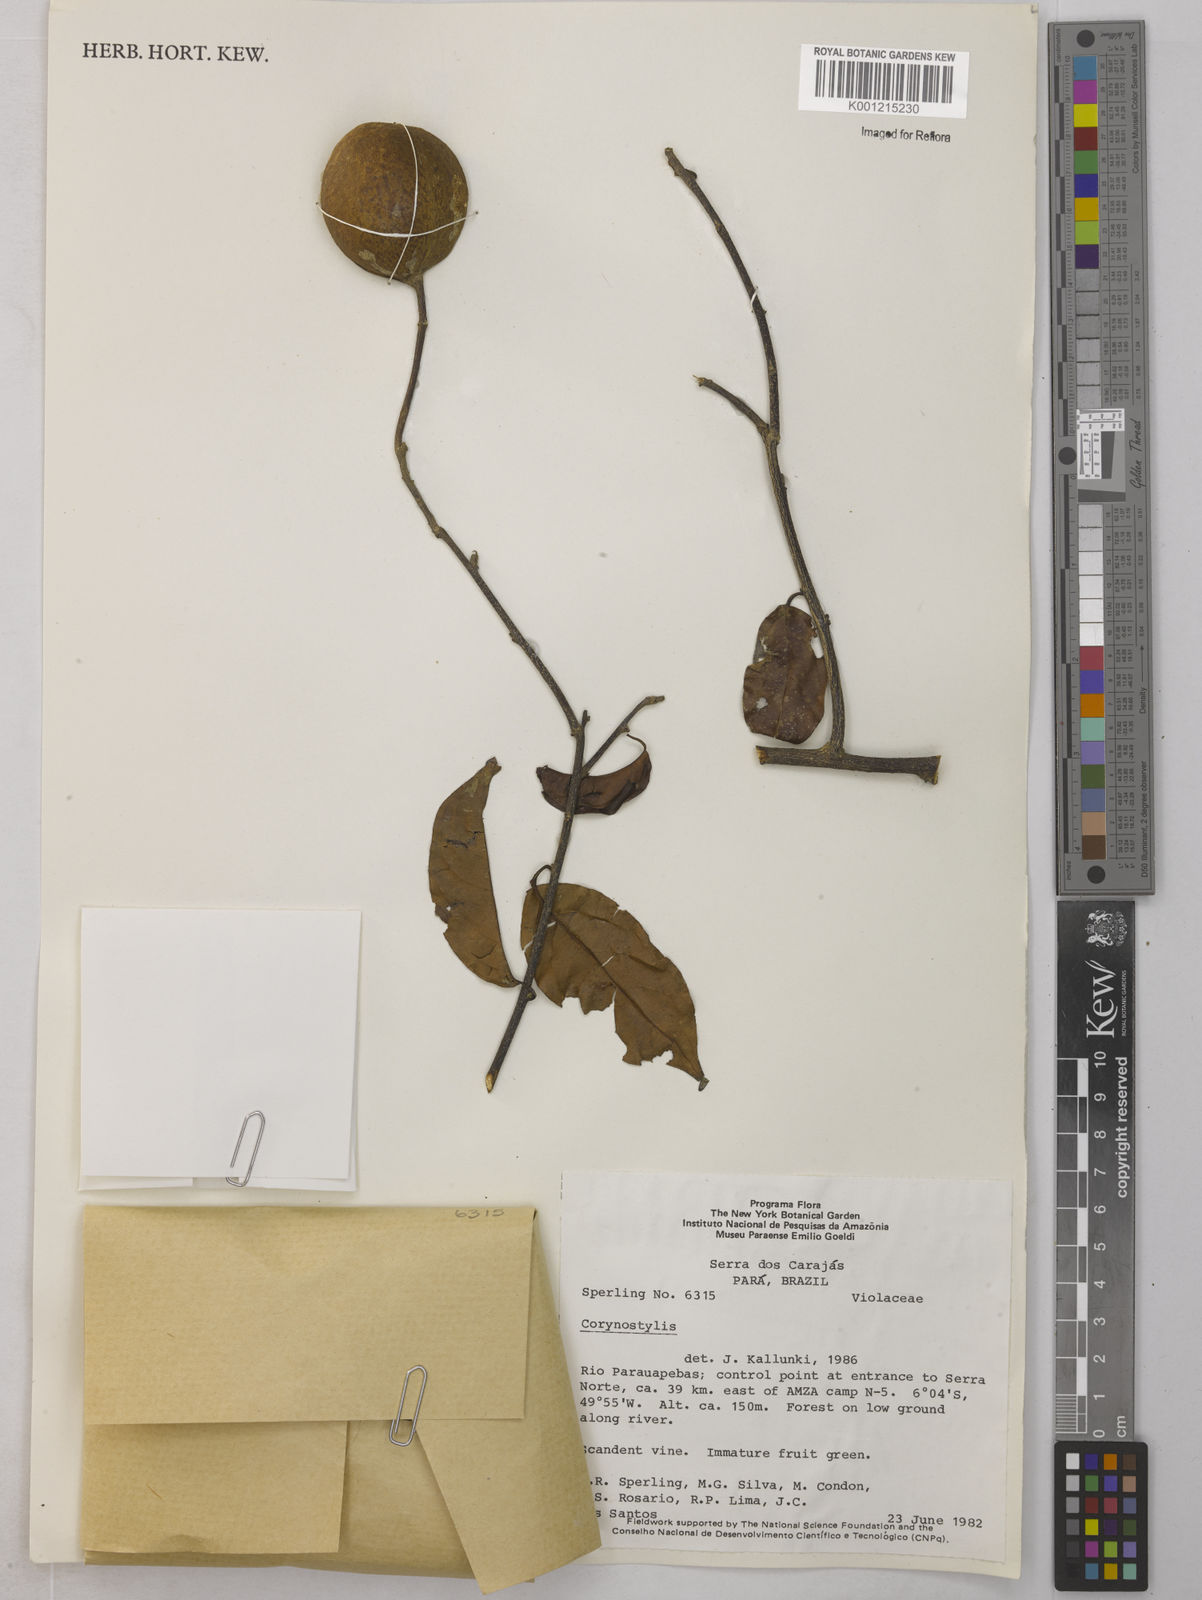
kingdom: Plantae
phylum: Tracheophyta
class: Magnoliopsida
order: Malpighiales
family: Violaceae
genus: Calyptrion
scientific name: Calyptrion arboreum
